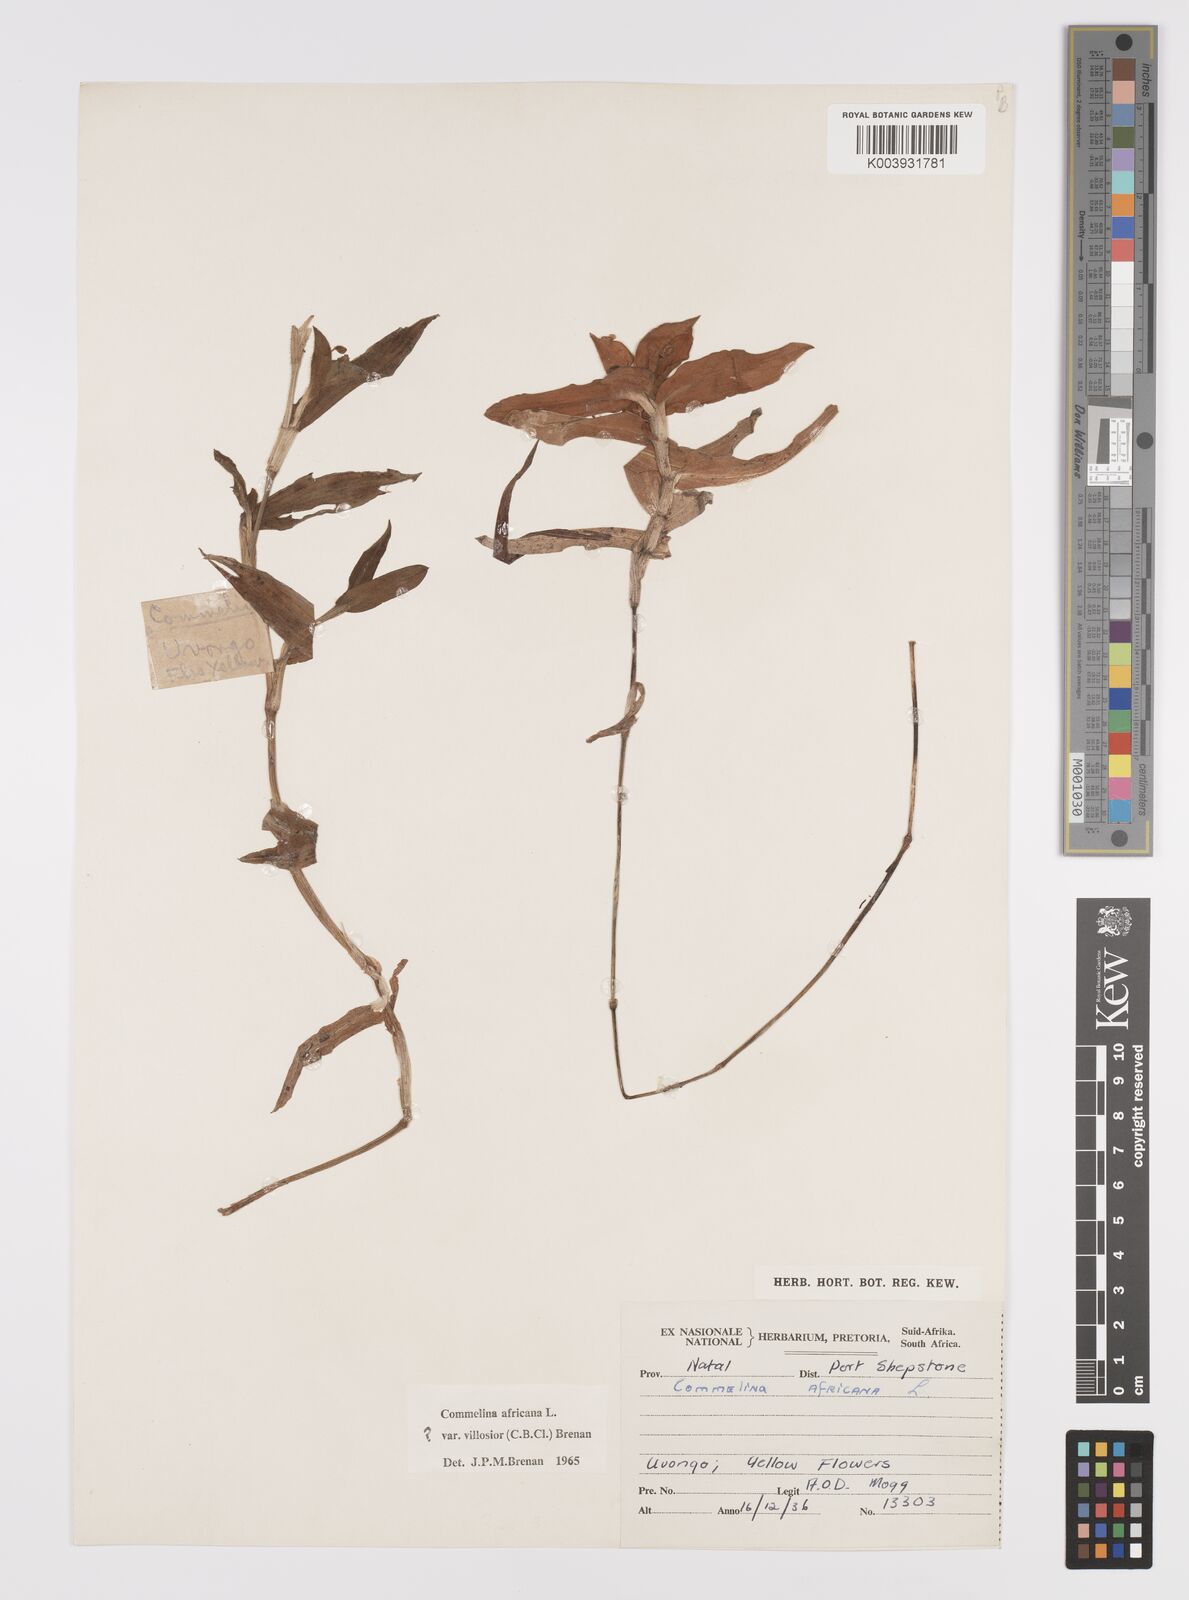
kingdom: Plantae
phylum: Tracheophyta
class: Liliopsida
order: Commelinales
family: Commelinaceae
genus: Commelina
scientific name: Commelina africana
